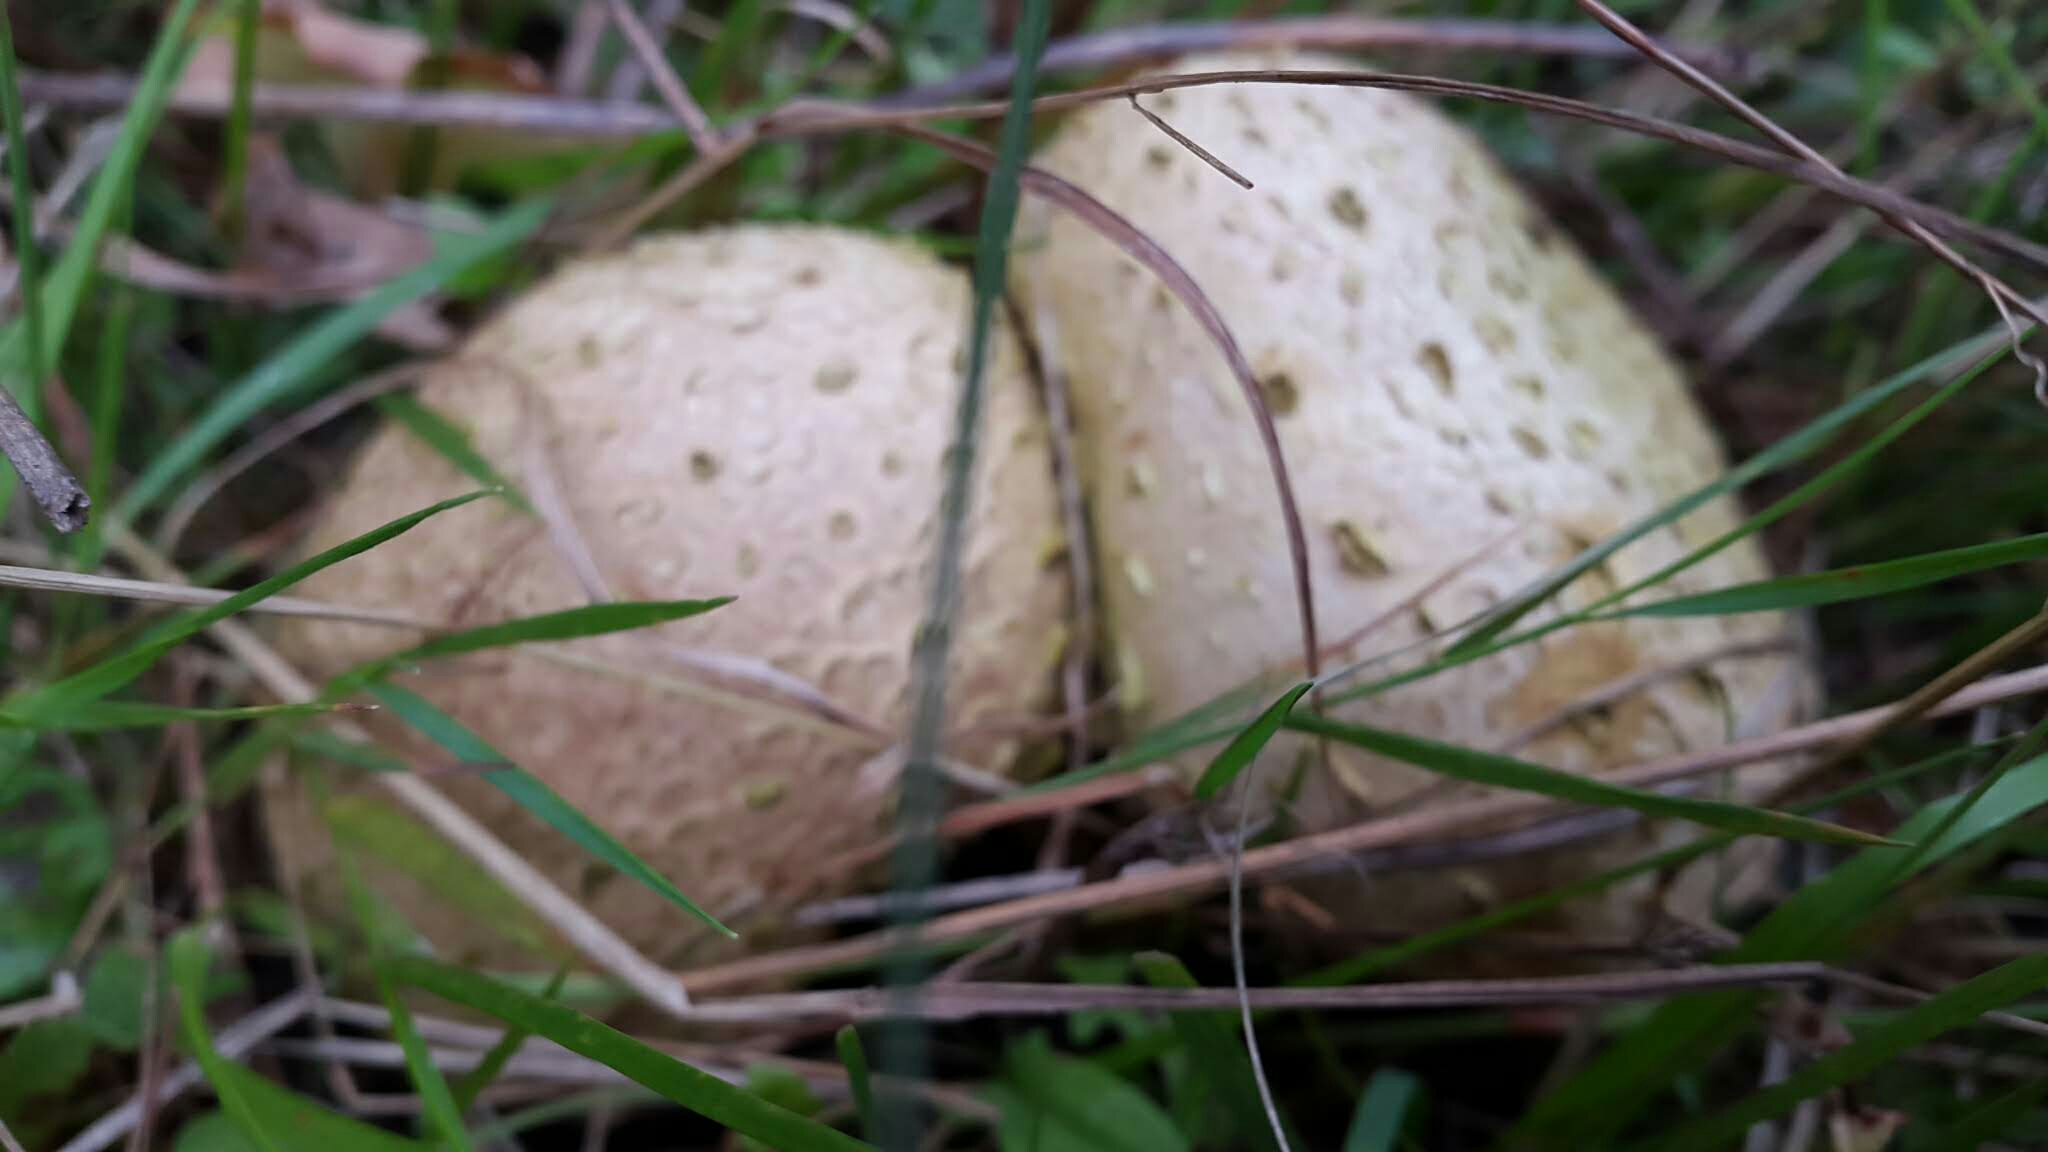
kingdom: Fungi
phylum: Basidiomycota
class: Agaricomycetes
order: Boletales
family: Sclerodermataceae
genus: Scleroderma
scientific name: Scleroderma citrinum
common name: almindelig bruskbold
